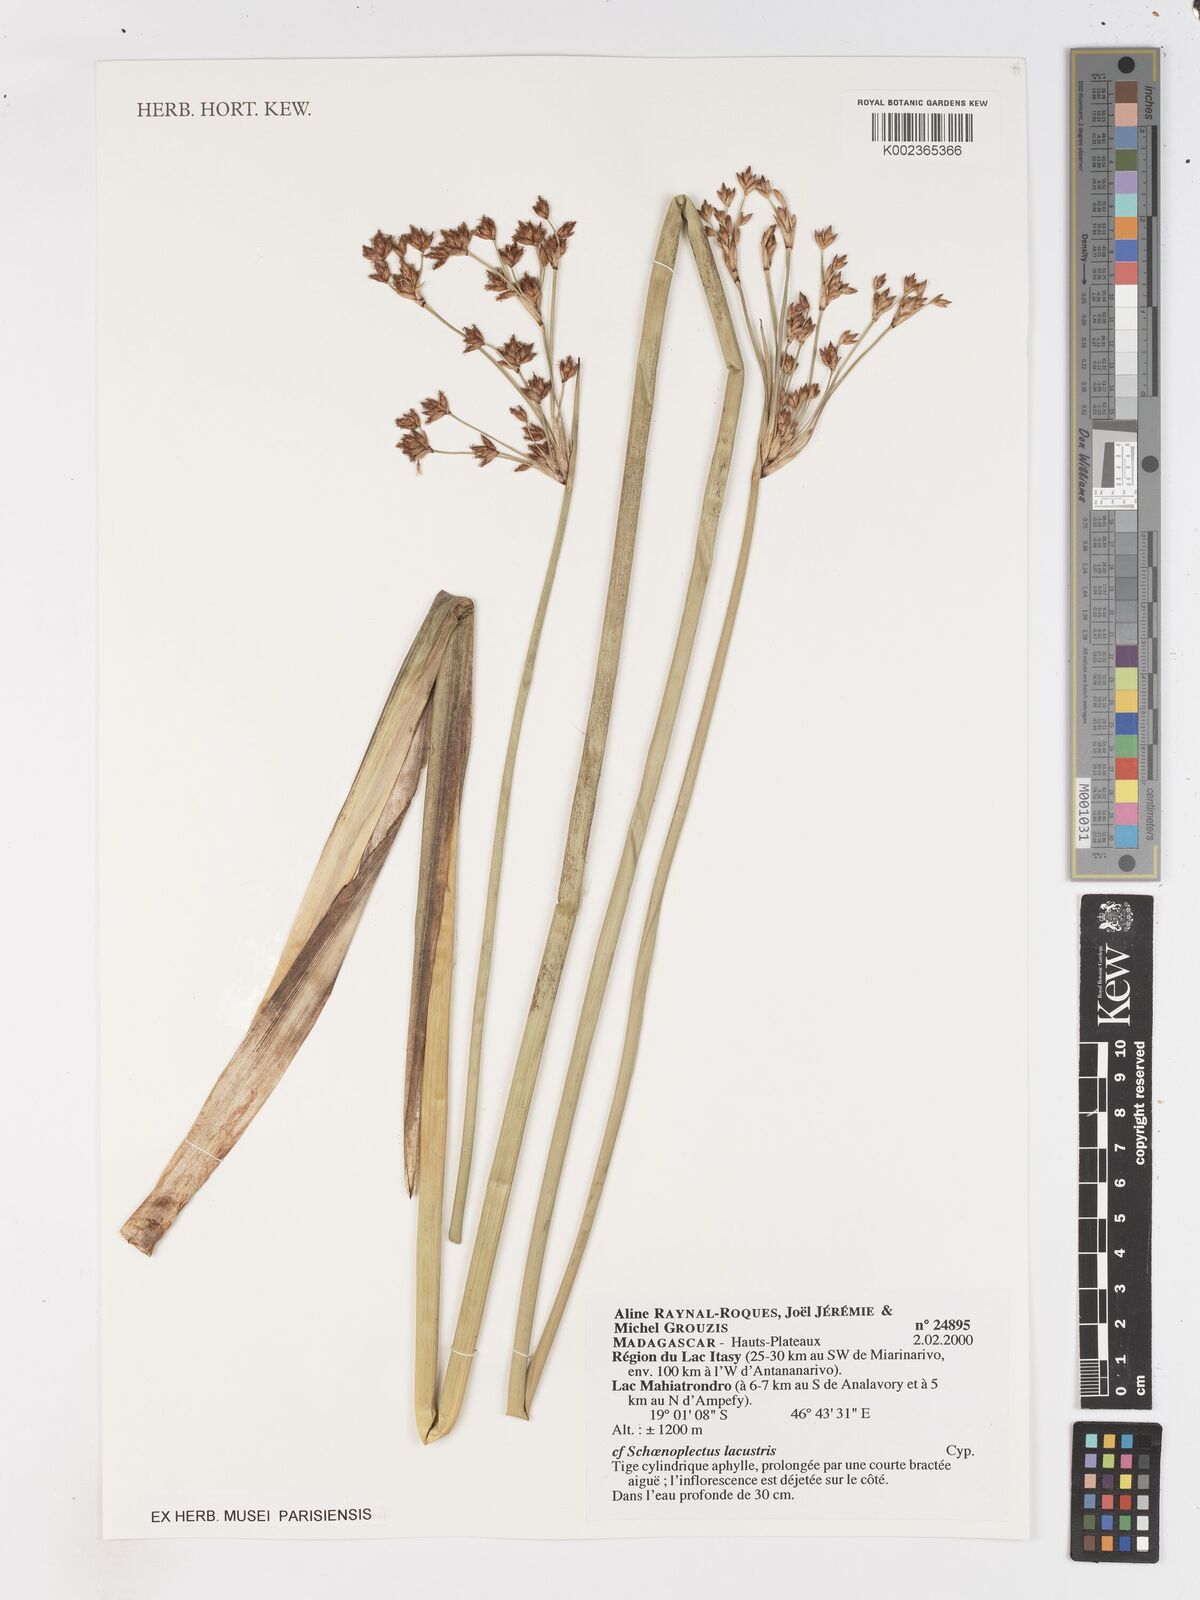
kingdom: Plantae
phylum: Tracheophyta
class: Liliopsida
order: Poales
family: Cyperaceae
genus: Schoenoplectus
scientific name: Schoenoplectus lacustris
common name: Common club-rush
